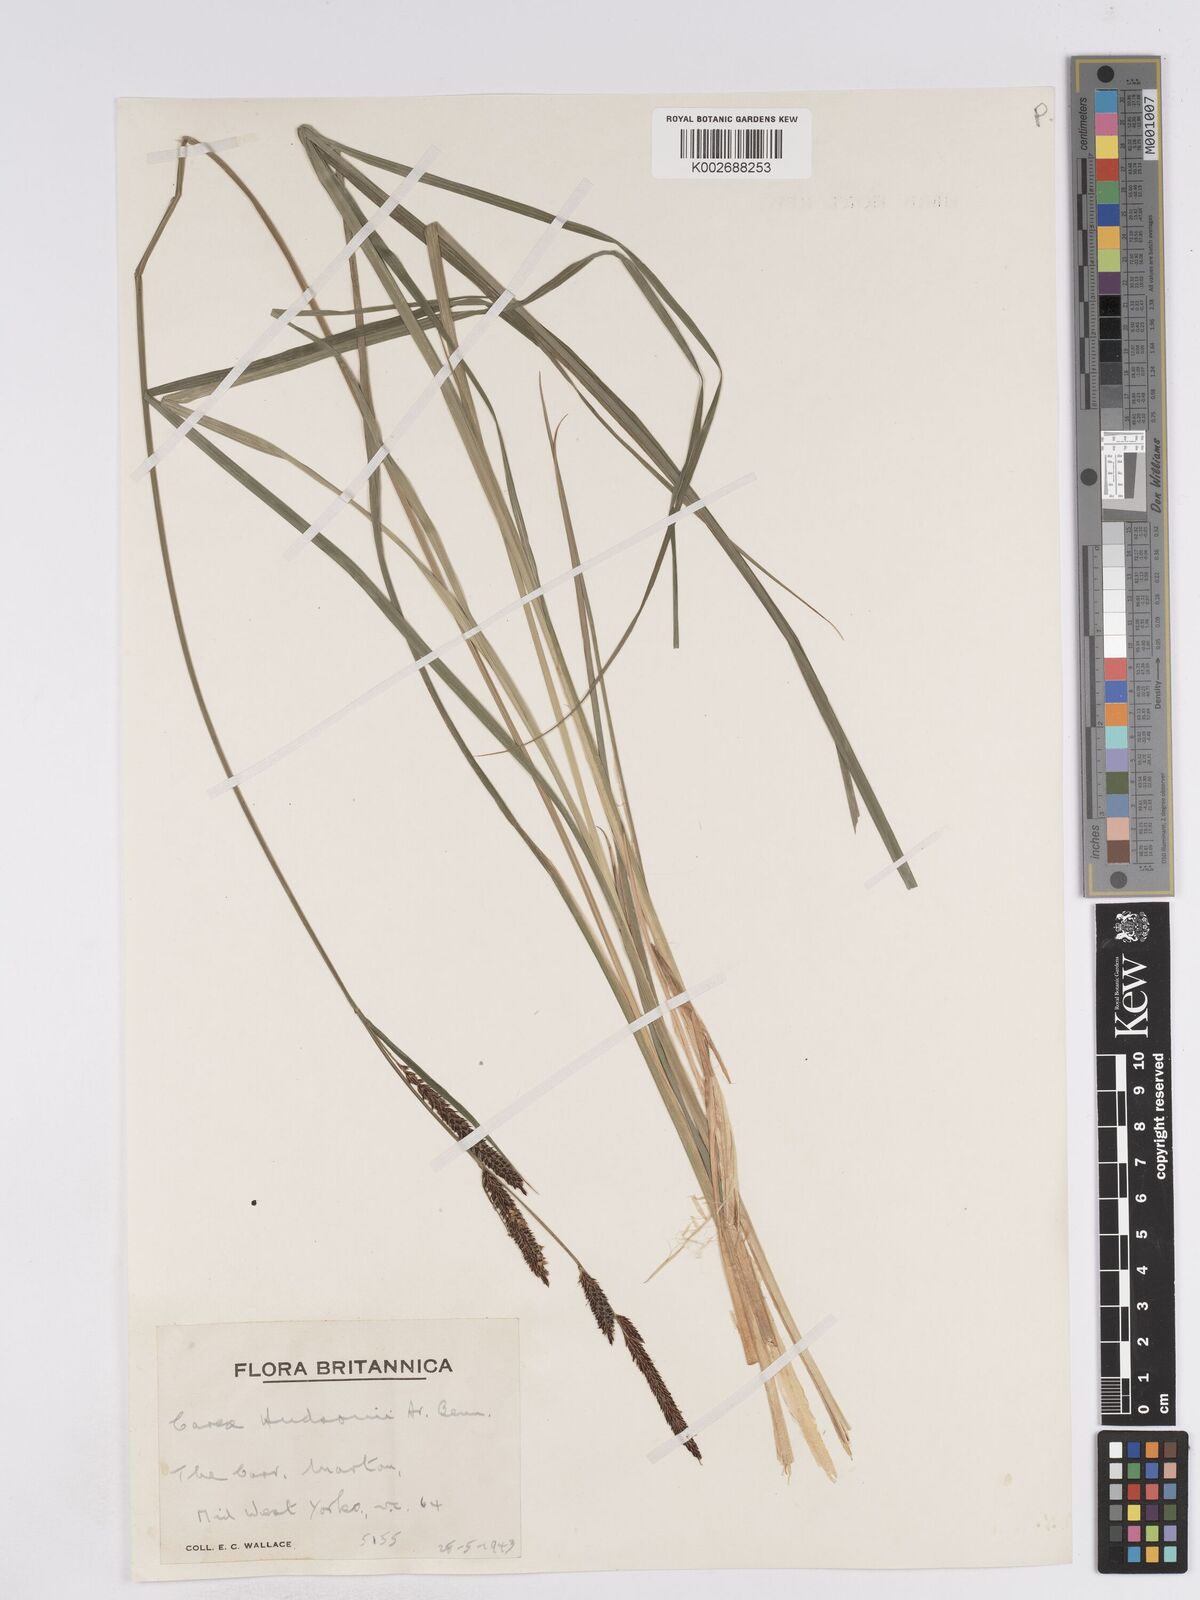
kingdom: Plantae
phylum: Tracheophyta
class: Liliopsida
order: Poales
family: Cyperaceae
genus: Carex
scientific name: Carex elata
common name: Tufted sedge
